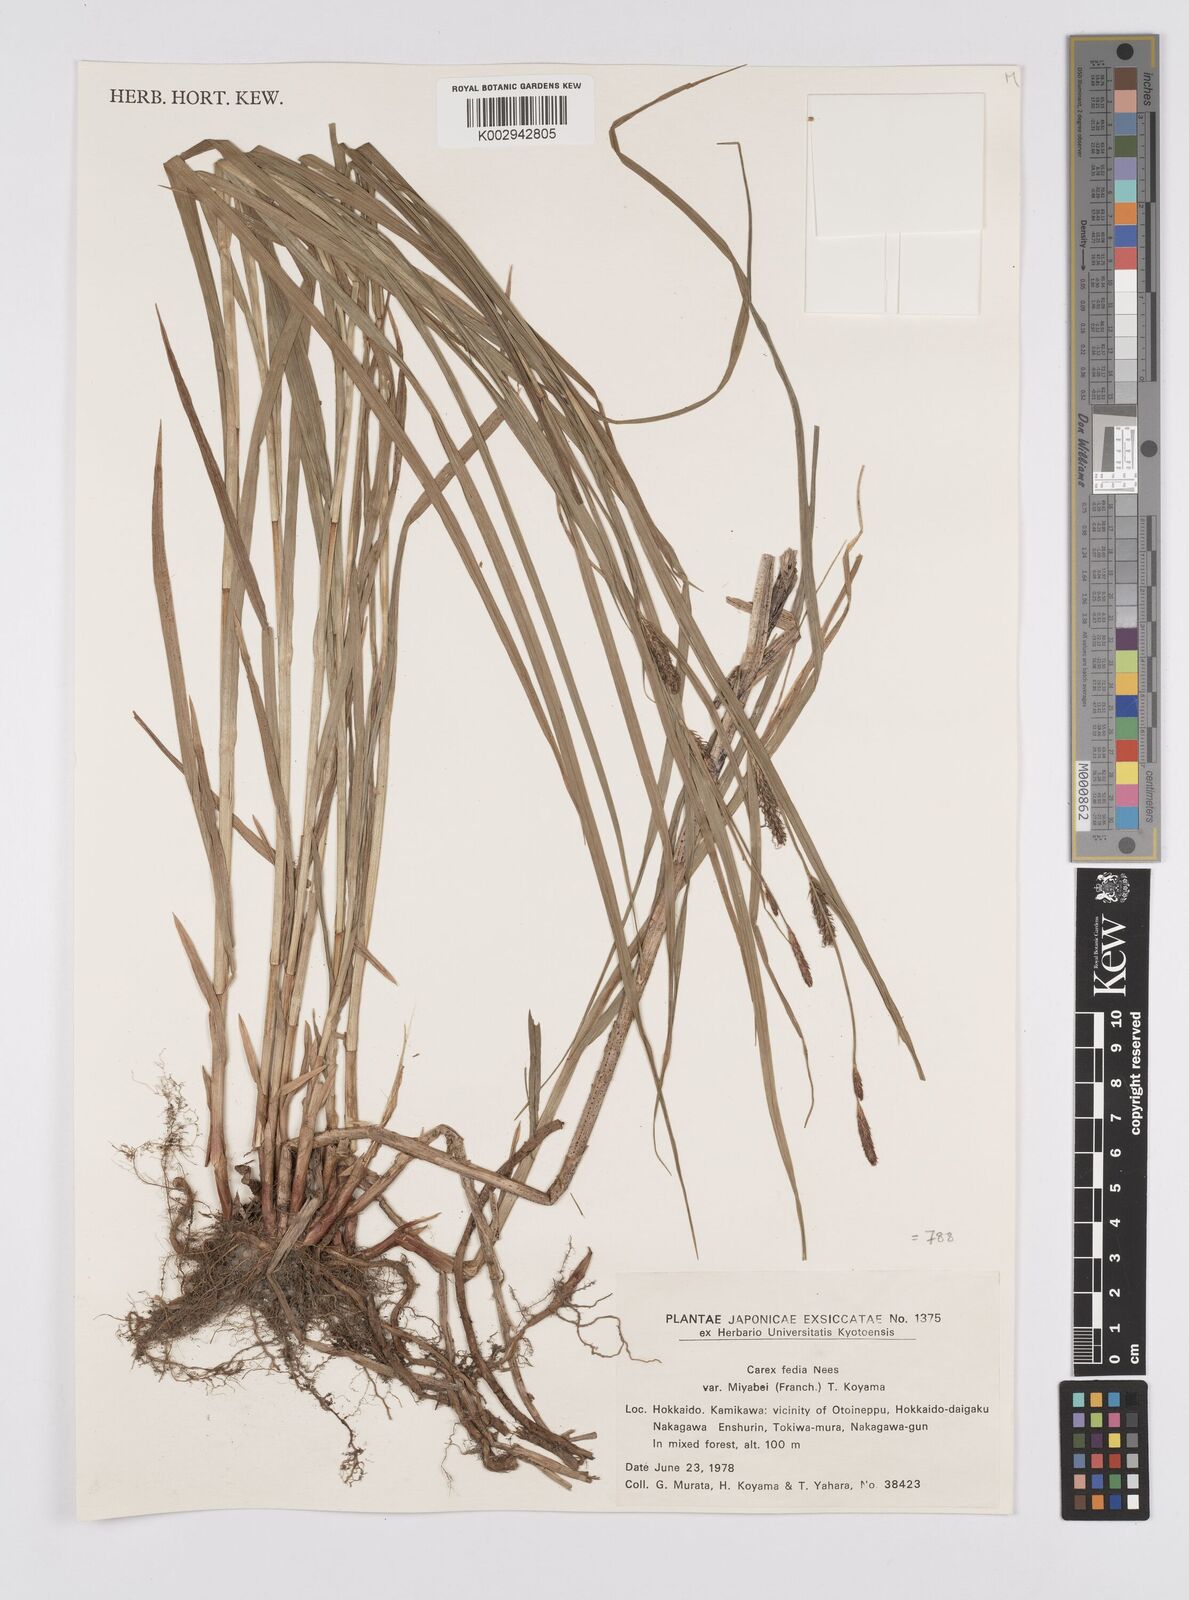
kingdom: Plantae
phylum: Tracheophyta
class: Liliopsida
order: Poales
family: Cyperaceae
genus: Carex
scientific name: Carex miyabei
